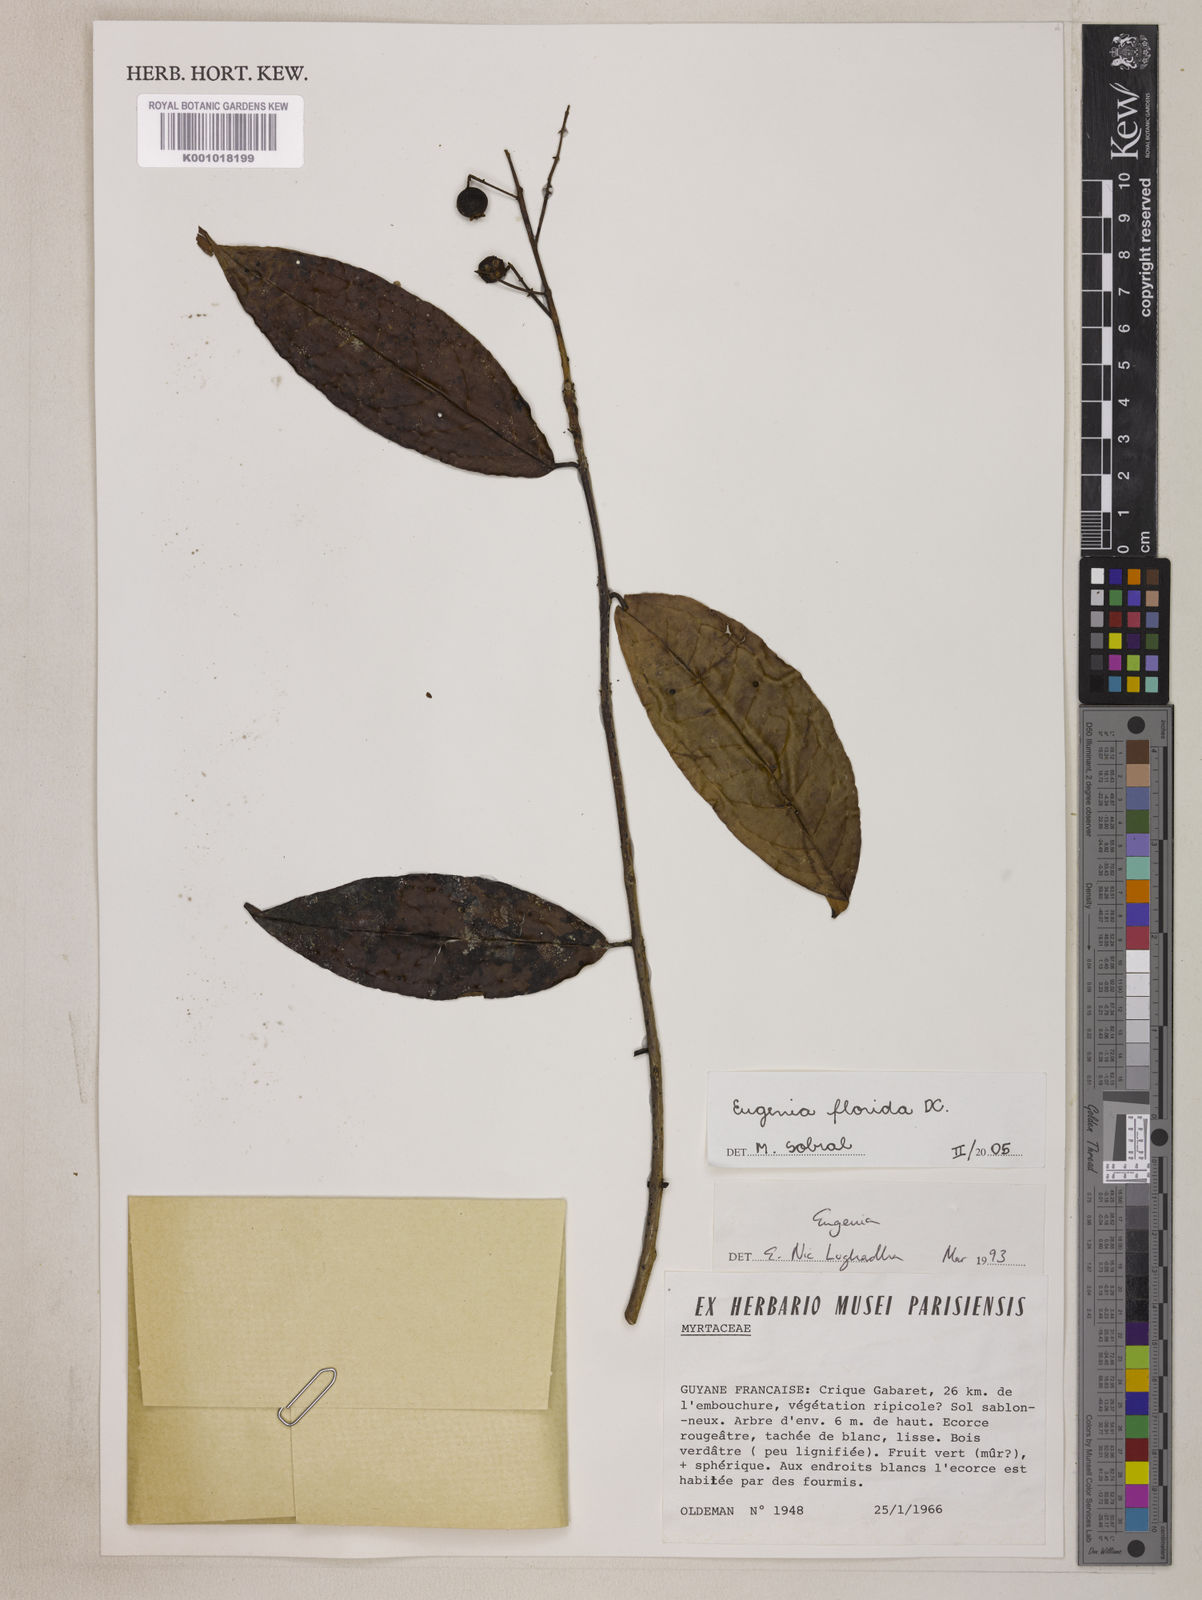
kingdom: Plantae
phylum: Tracheophyta
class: Magnoliopsida
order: Myrtales
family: Myrtaceae
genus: Eugenia
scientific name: Eugenia florida
